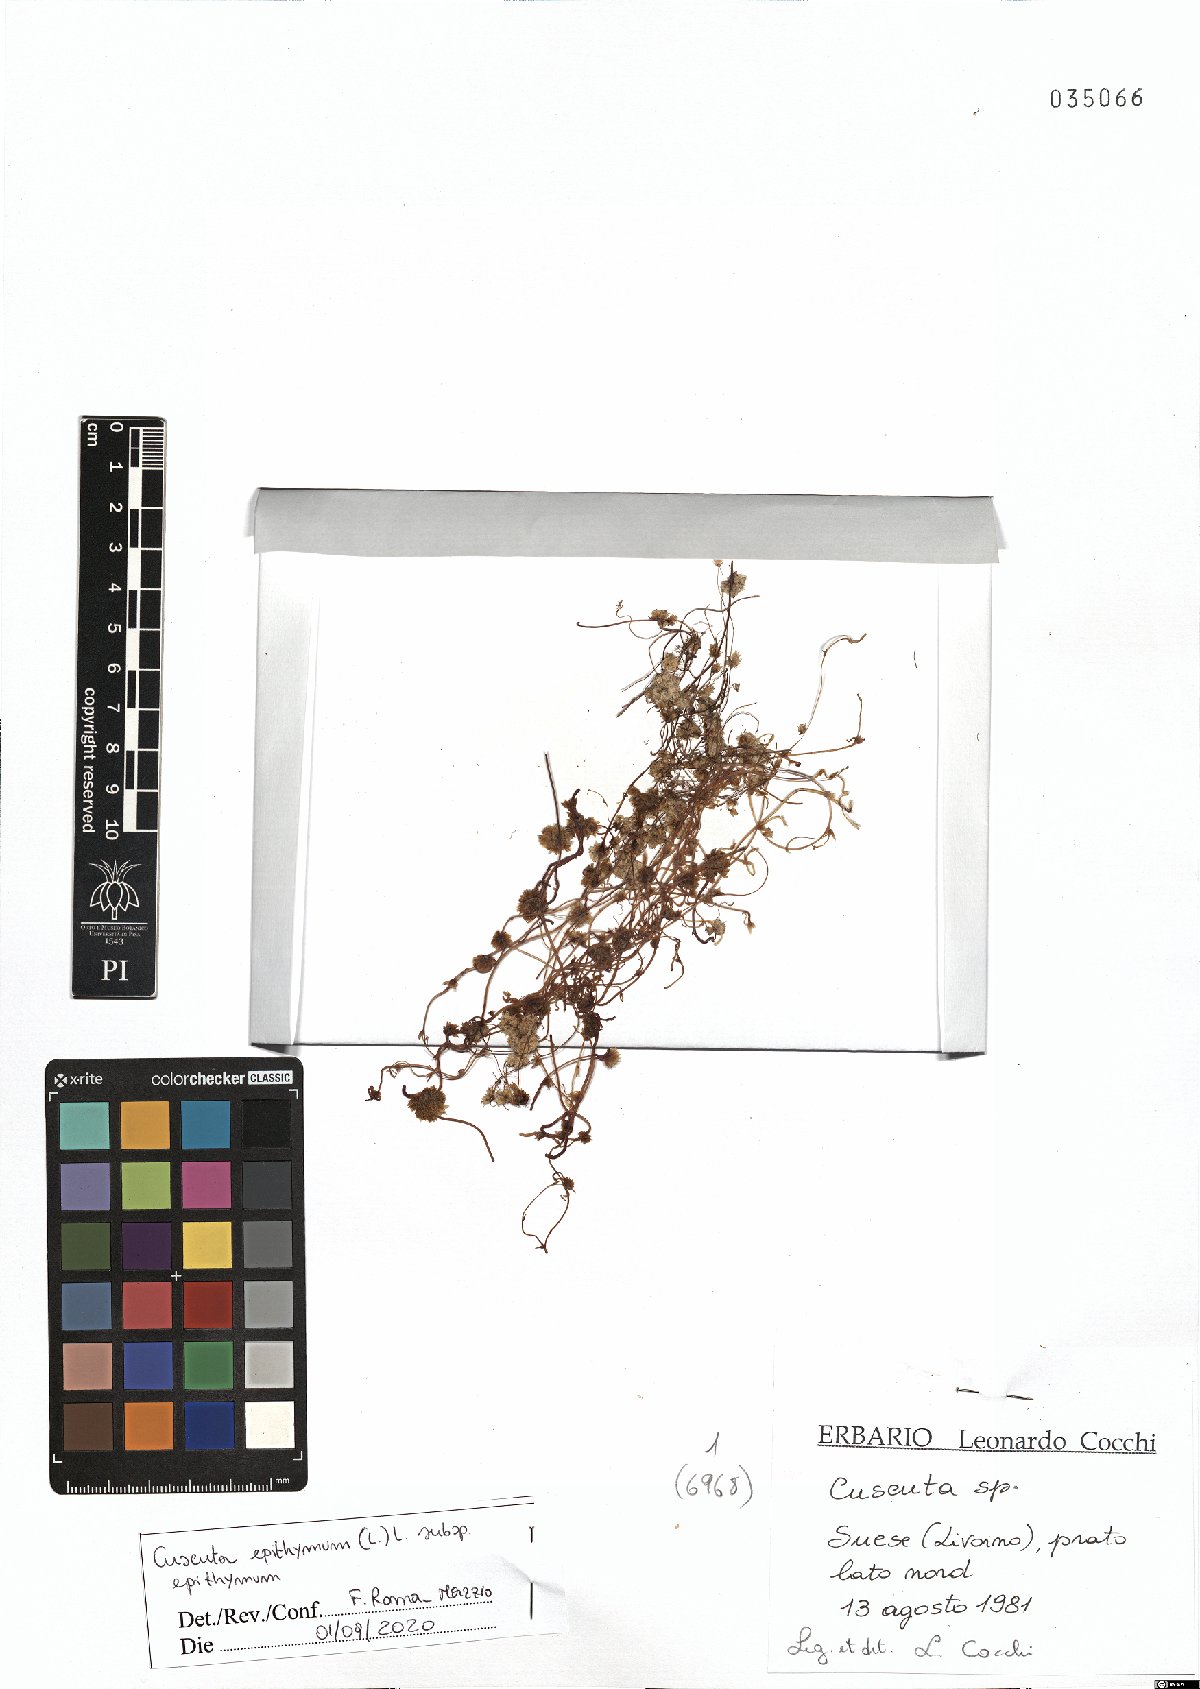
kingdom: Plantae
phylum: Tracheophyta
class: Magnoliopsida
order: Solanales
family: Convolvulaceae
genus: Cuscuta
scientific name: Cuscuta epithymum
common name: Clover dodder
